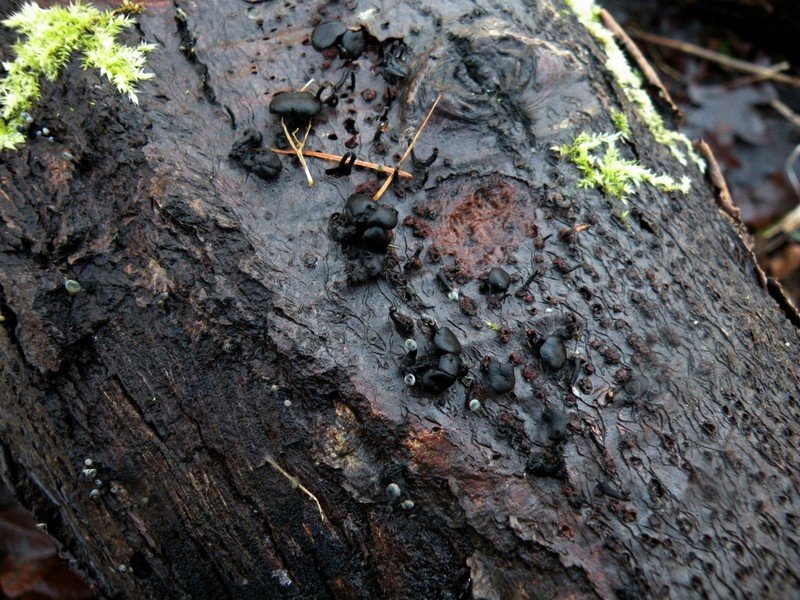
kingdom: Fungi
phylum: Ascomycota
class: Leotiomycetes
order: Helotiales
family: Bulgariaceae
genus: Holwaya
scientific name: Holwaya mucida
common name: lindeskive
